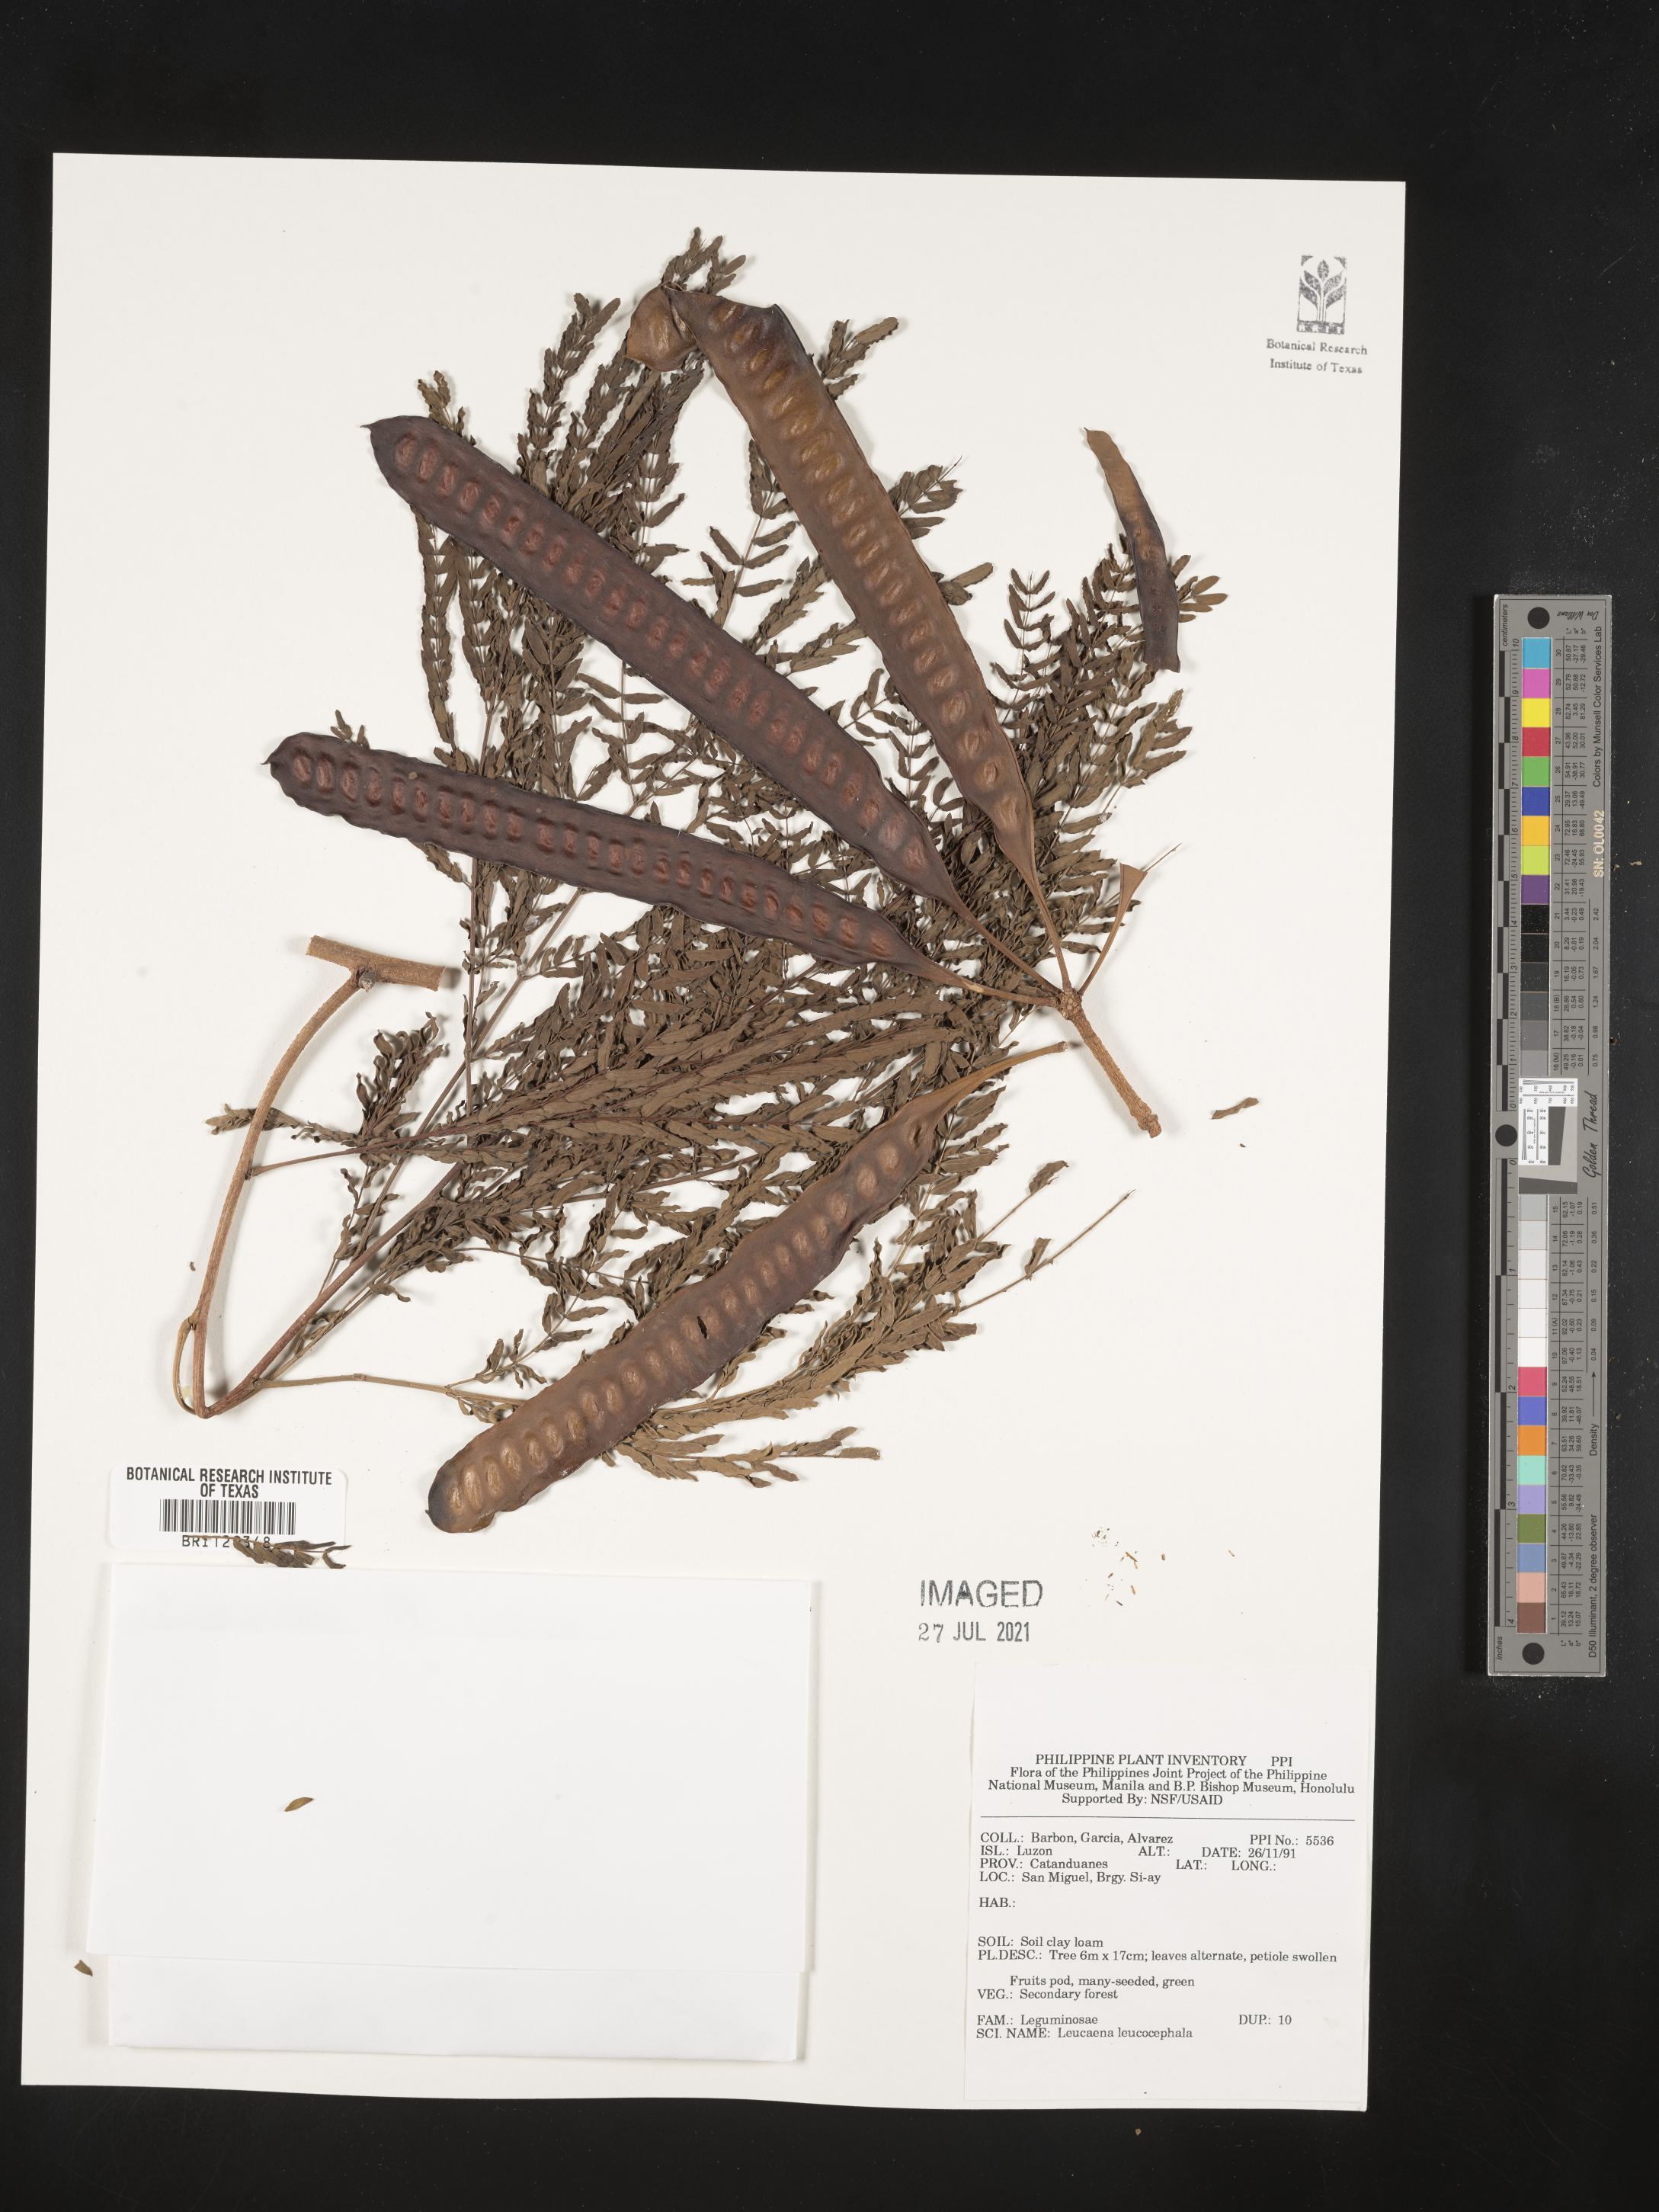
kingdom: Plantae
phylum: Tracheophyta
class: Magnoliopsida
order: Fabales
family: Fabaceae
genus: Leucaena
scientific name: Leucaena leucocephala
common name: White leadtree
